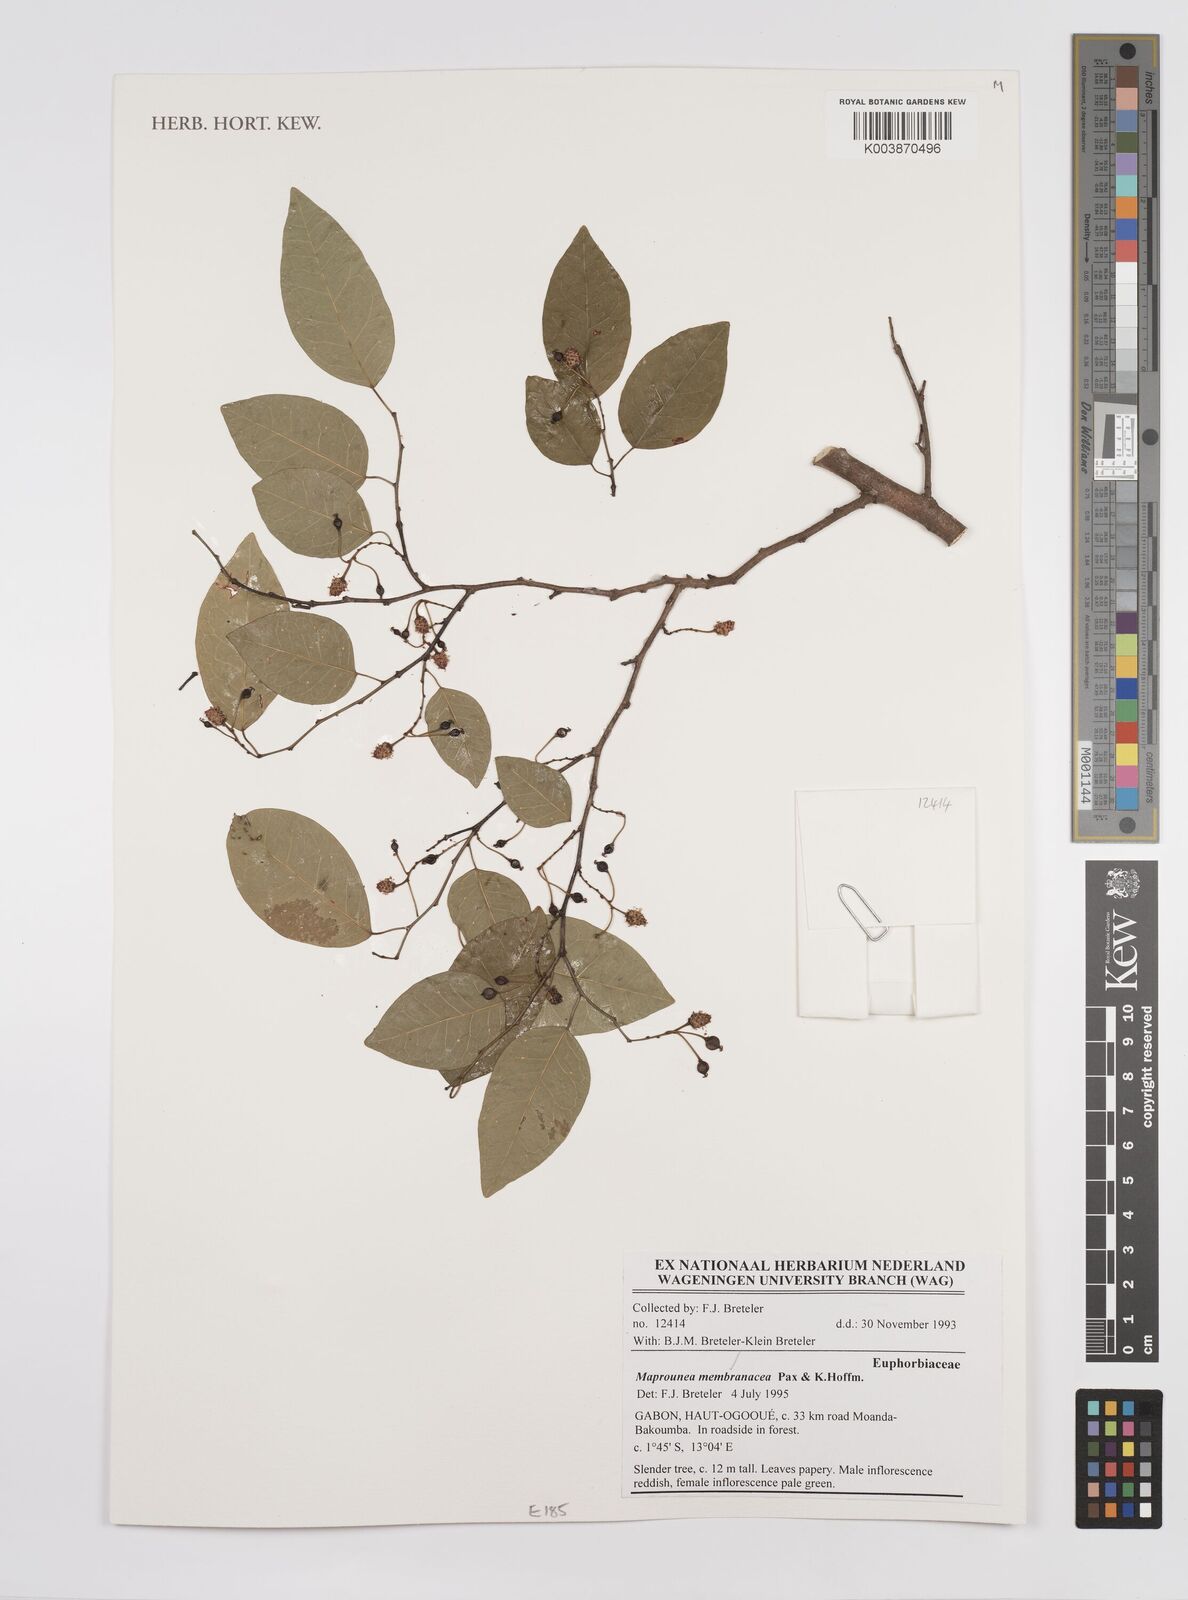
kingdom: Plantae
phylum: Tracheophyta
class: Magnoliopsida
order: Malpighiales
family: Euphorbiaceae
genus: Maprounea
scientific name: Maprounea membranacea
